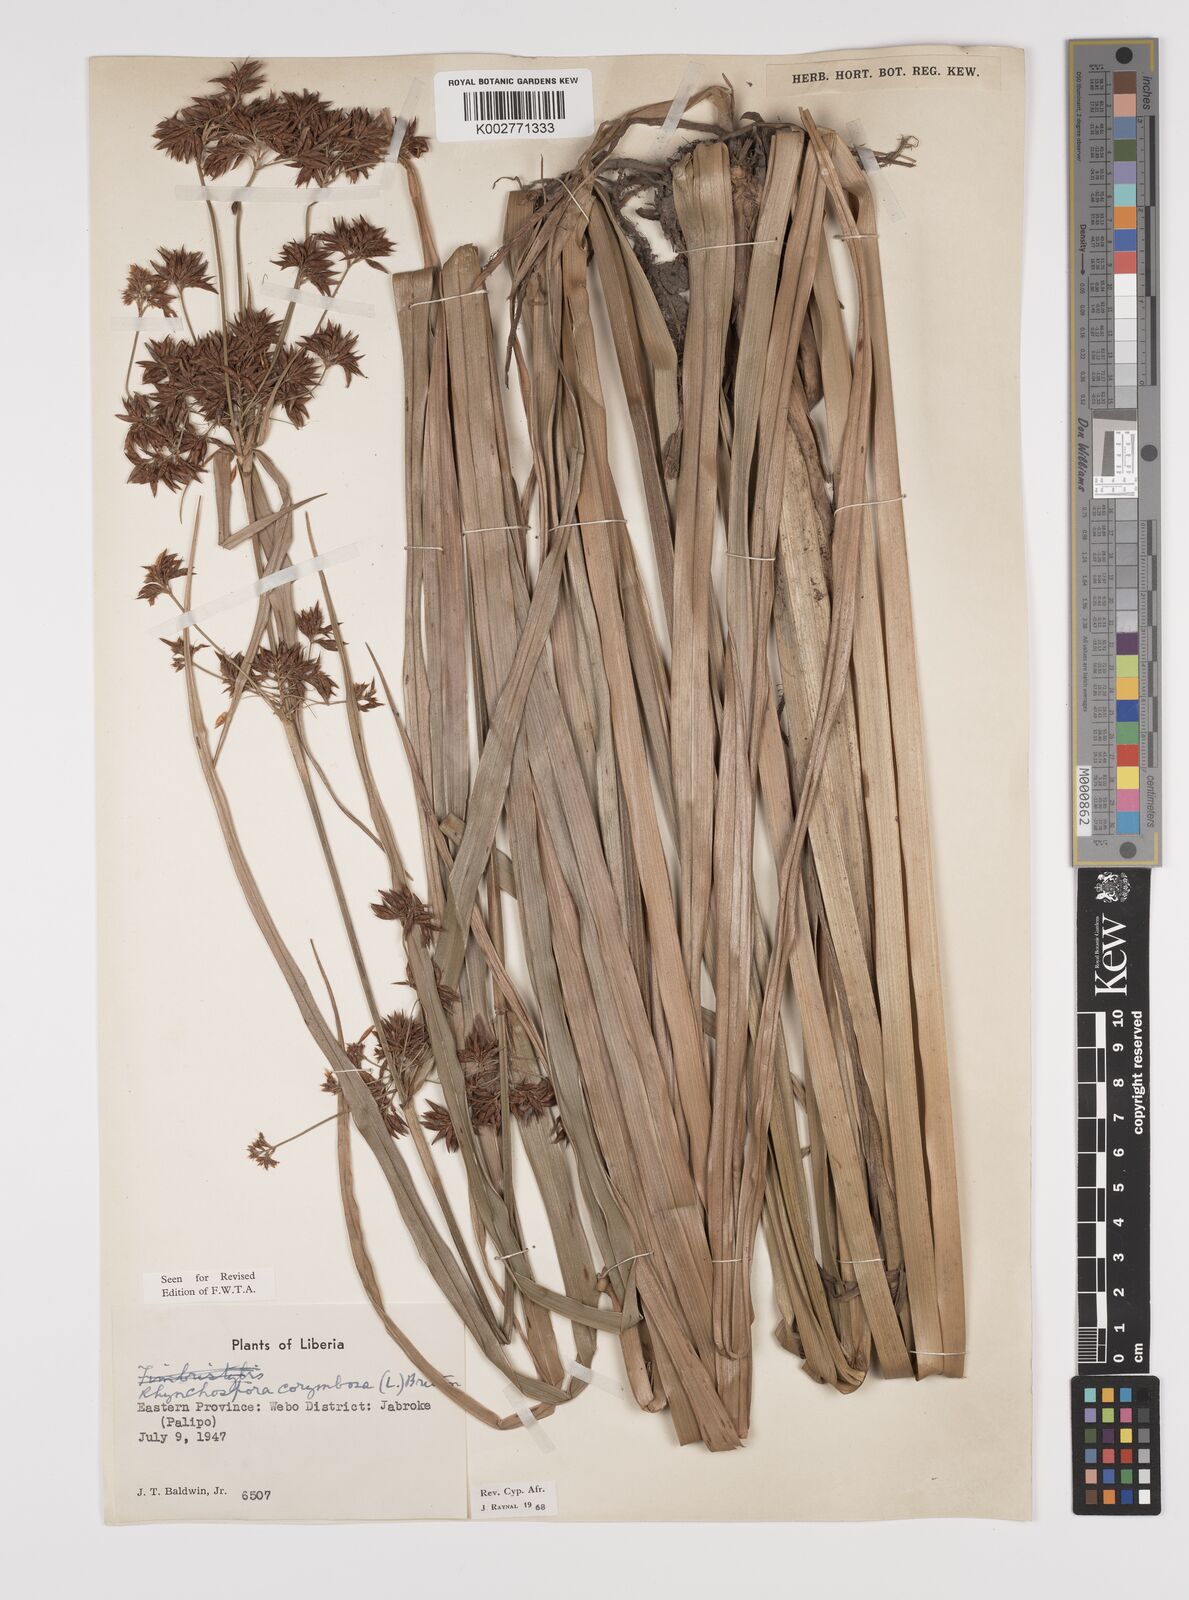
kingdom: Plantae
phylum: Tracheophyta
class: Liliopsida
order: Poales
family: Cyperaceae
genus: Rhynchospora
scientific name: Rhynchospora corymbosa
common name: Golden beak sedge
